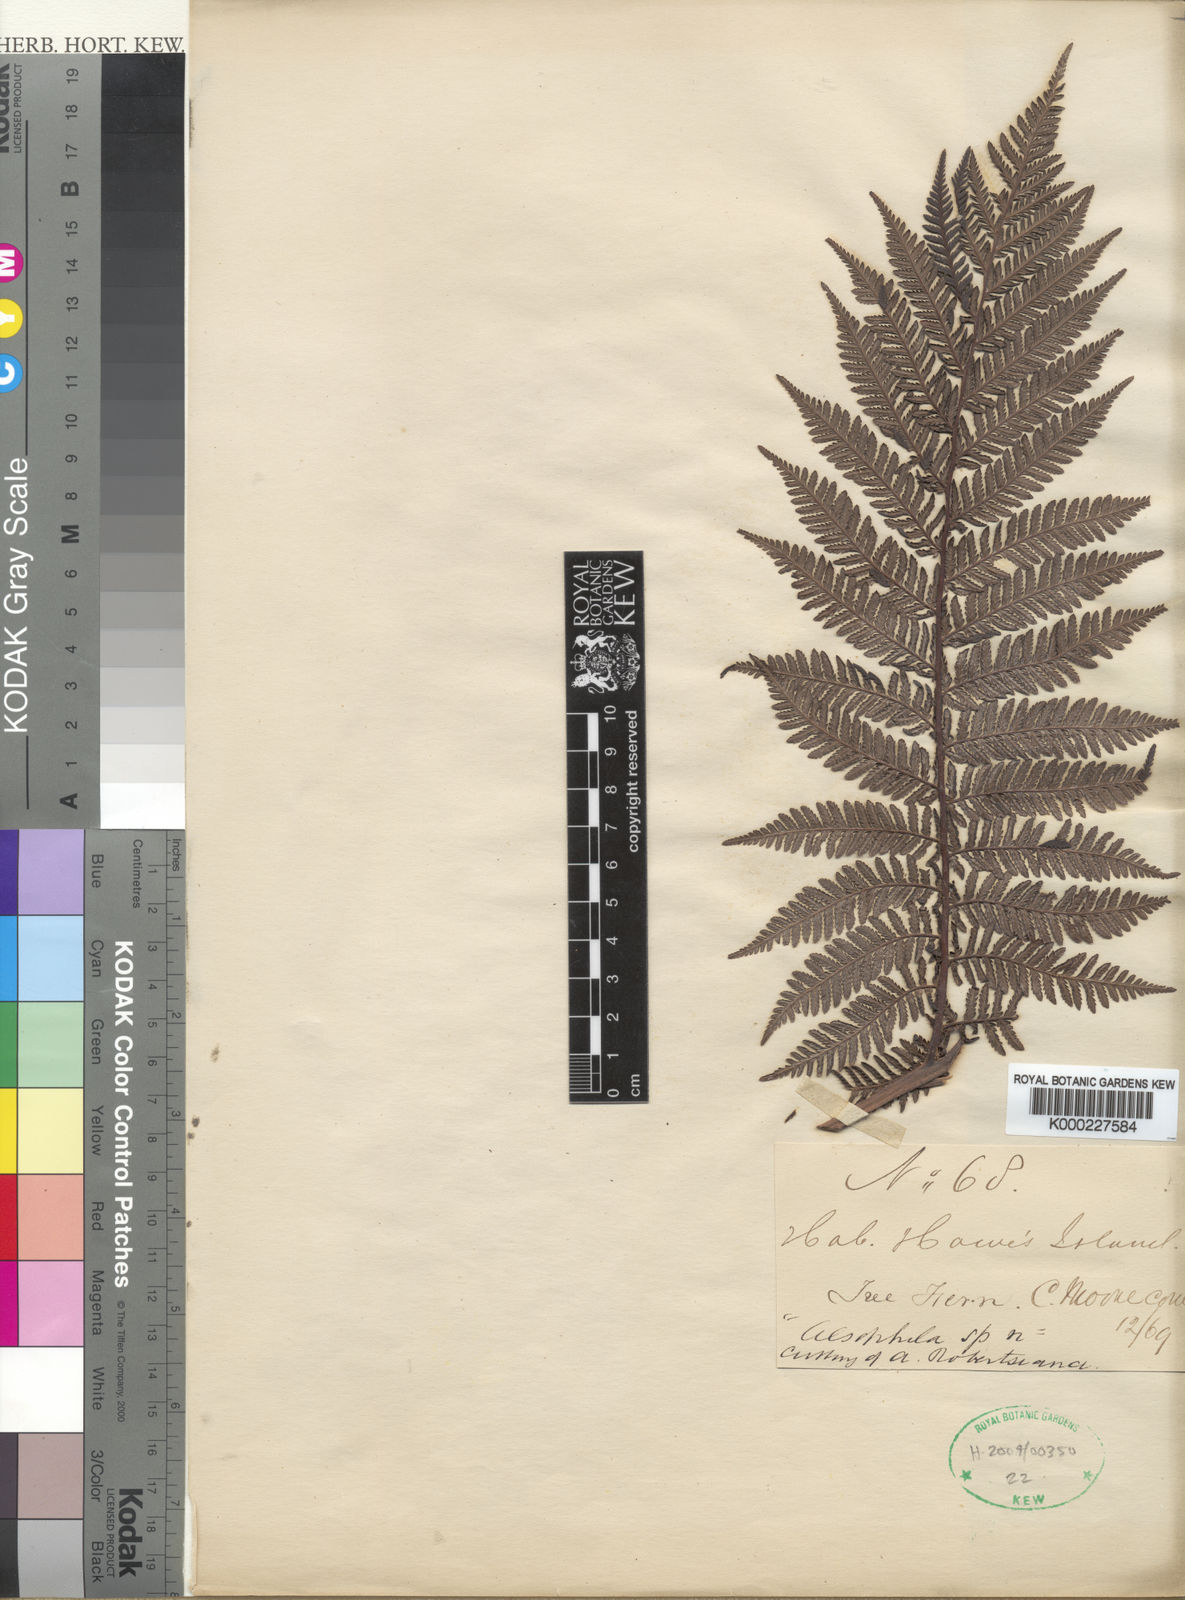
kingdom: Plantae
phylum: Tracheophyta
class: Polypodiopsida
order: Cyatheales
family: Cyatheaceae
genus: Cyathea
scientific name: Cyathea howeana
